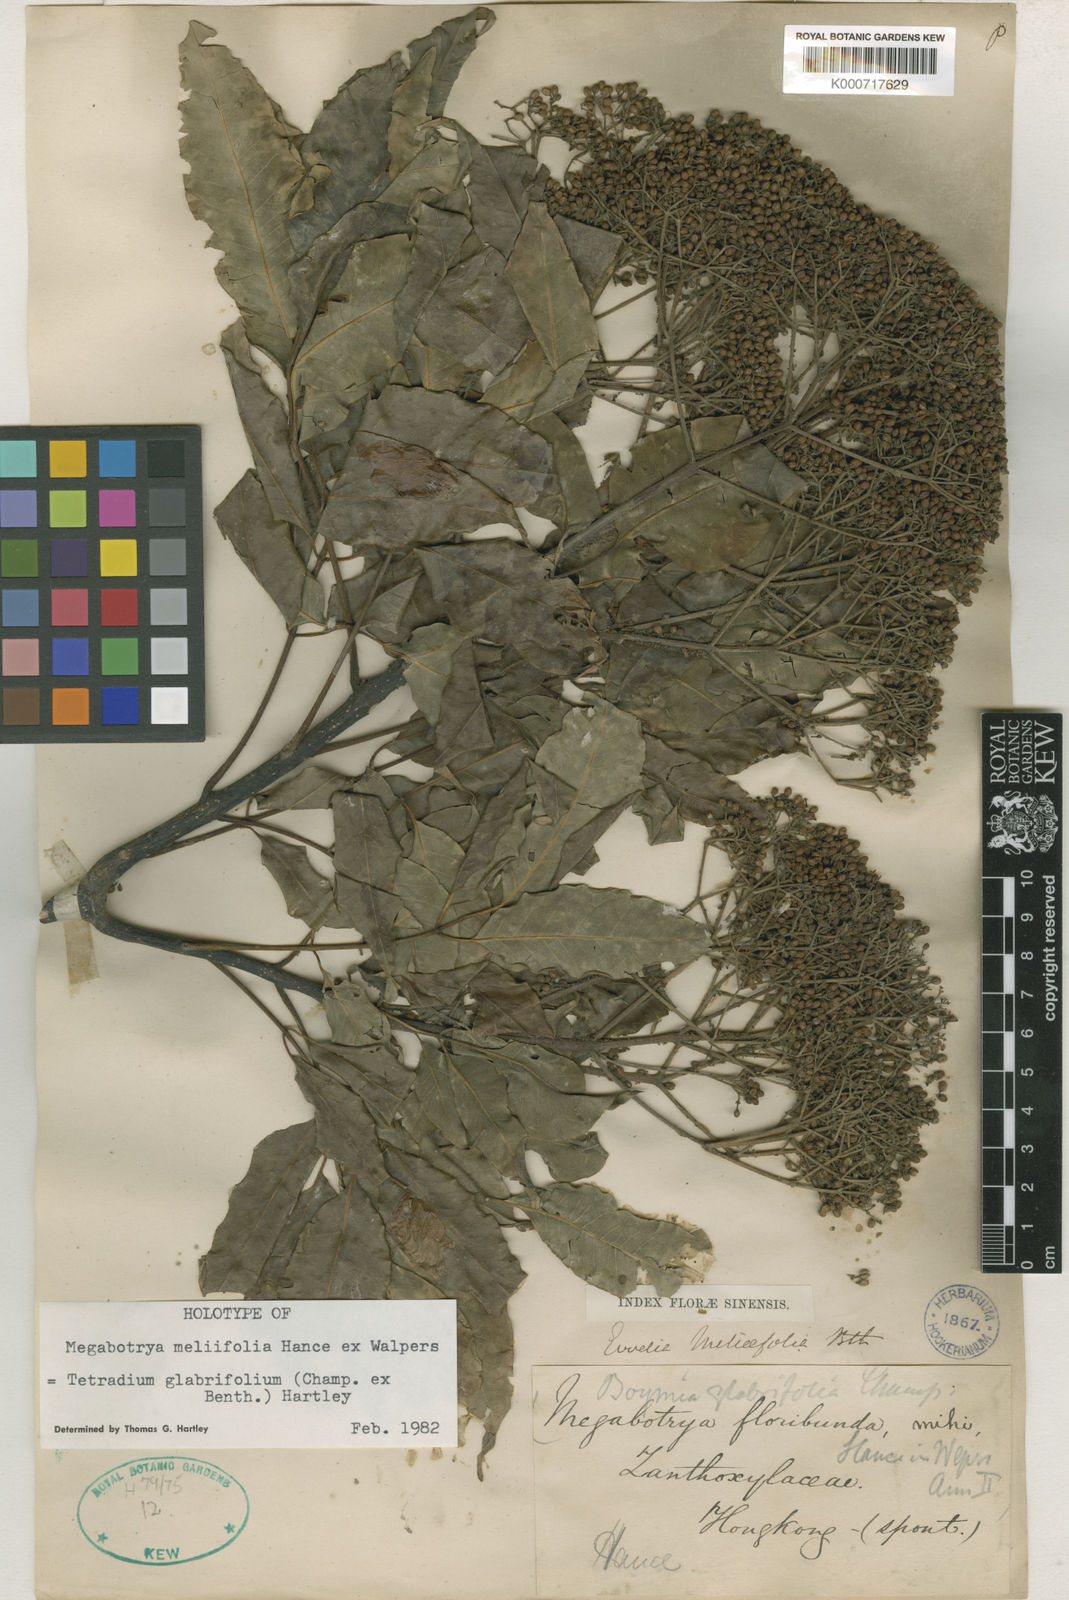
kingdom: Plantae
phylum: Tracheophyta
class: Magnoliopsida
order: Sapindales
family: Rutaceae
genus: Tetradium
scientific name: Tetradium glabrifolium
